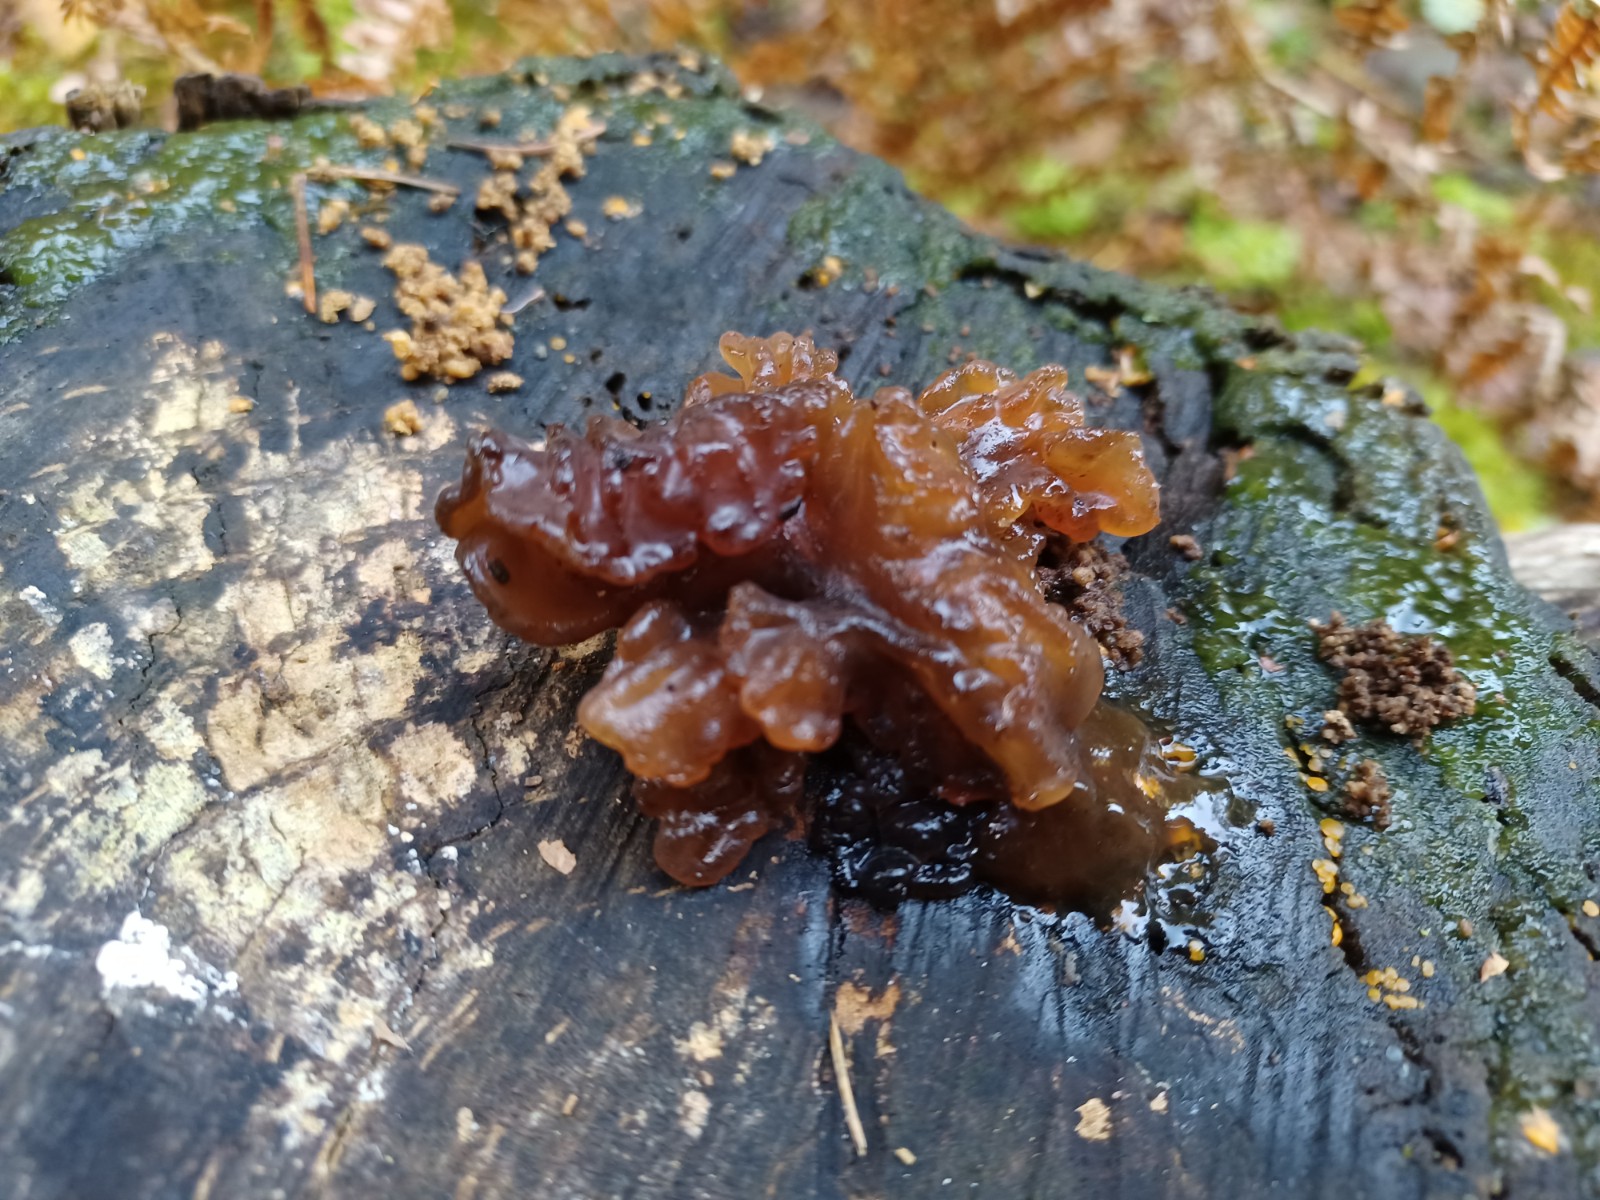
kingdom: Fungi
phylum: Basidiomycota
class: Tremellomycetes
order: Tremellales
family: Tremellaceae
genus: Phaeotremella
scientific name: Phaeotremella
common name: bævresvamp
